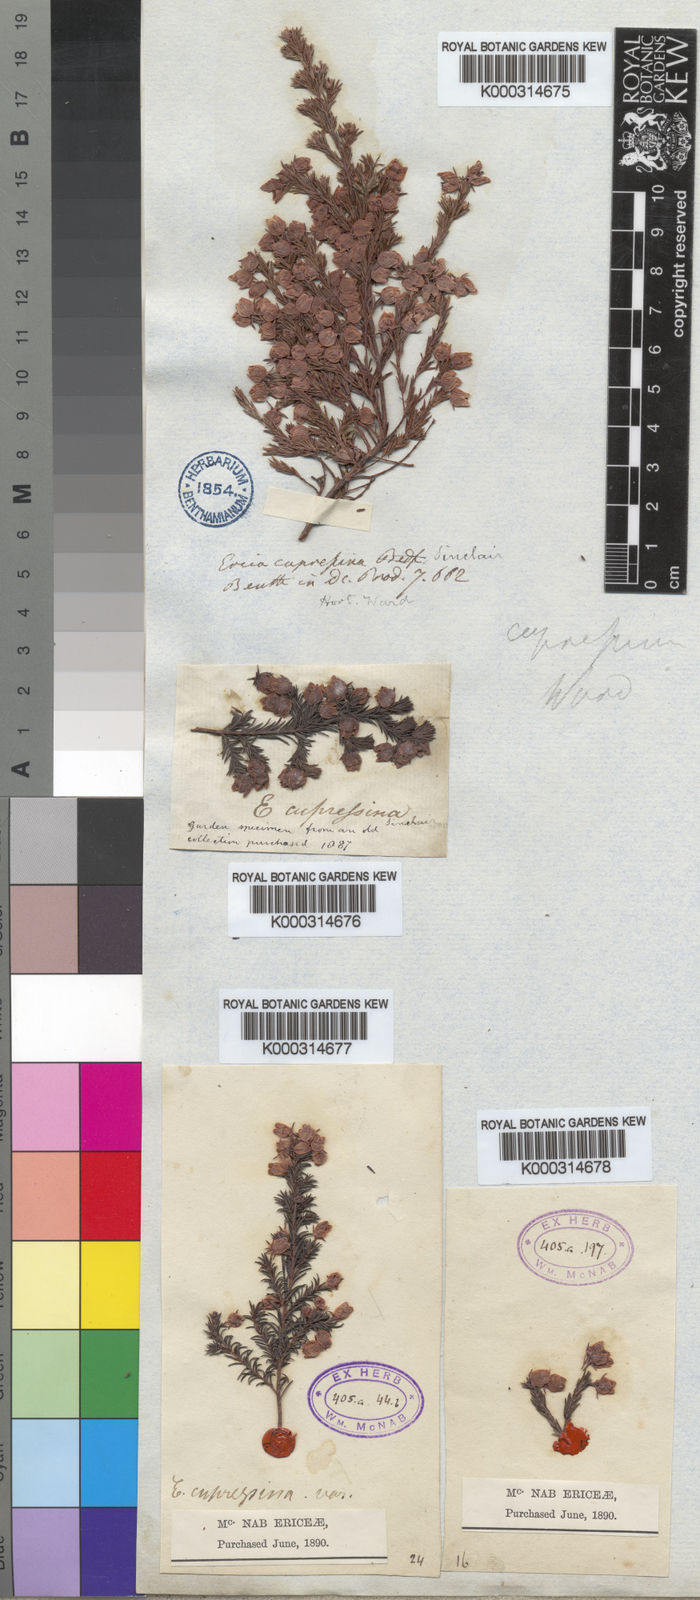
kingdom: Plantae
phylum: Tracheophyta
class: Magnoliopsida
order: Ericales
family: Ericaceae
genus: Erica
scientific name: Erica bergiana
